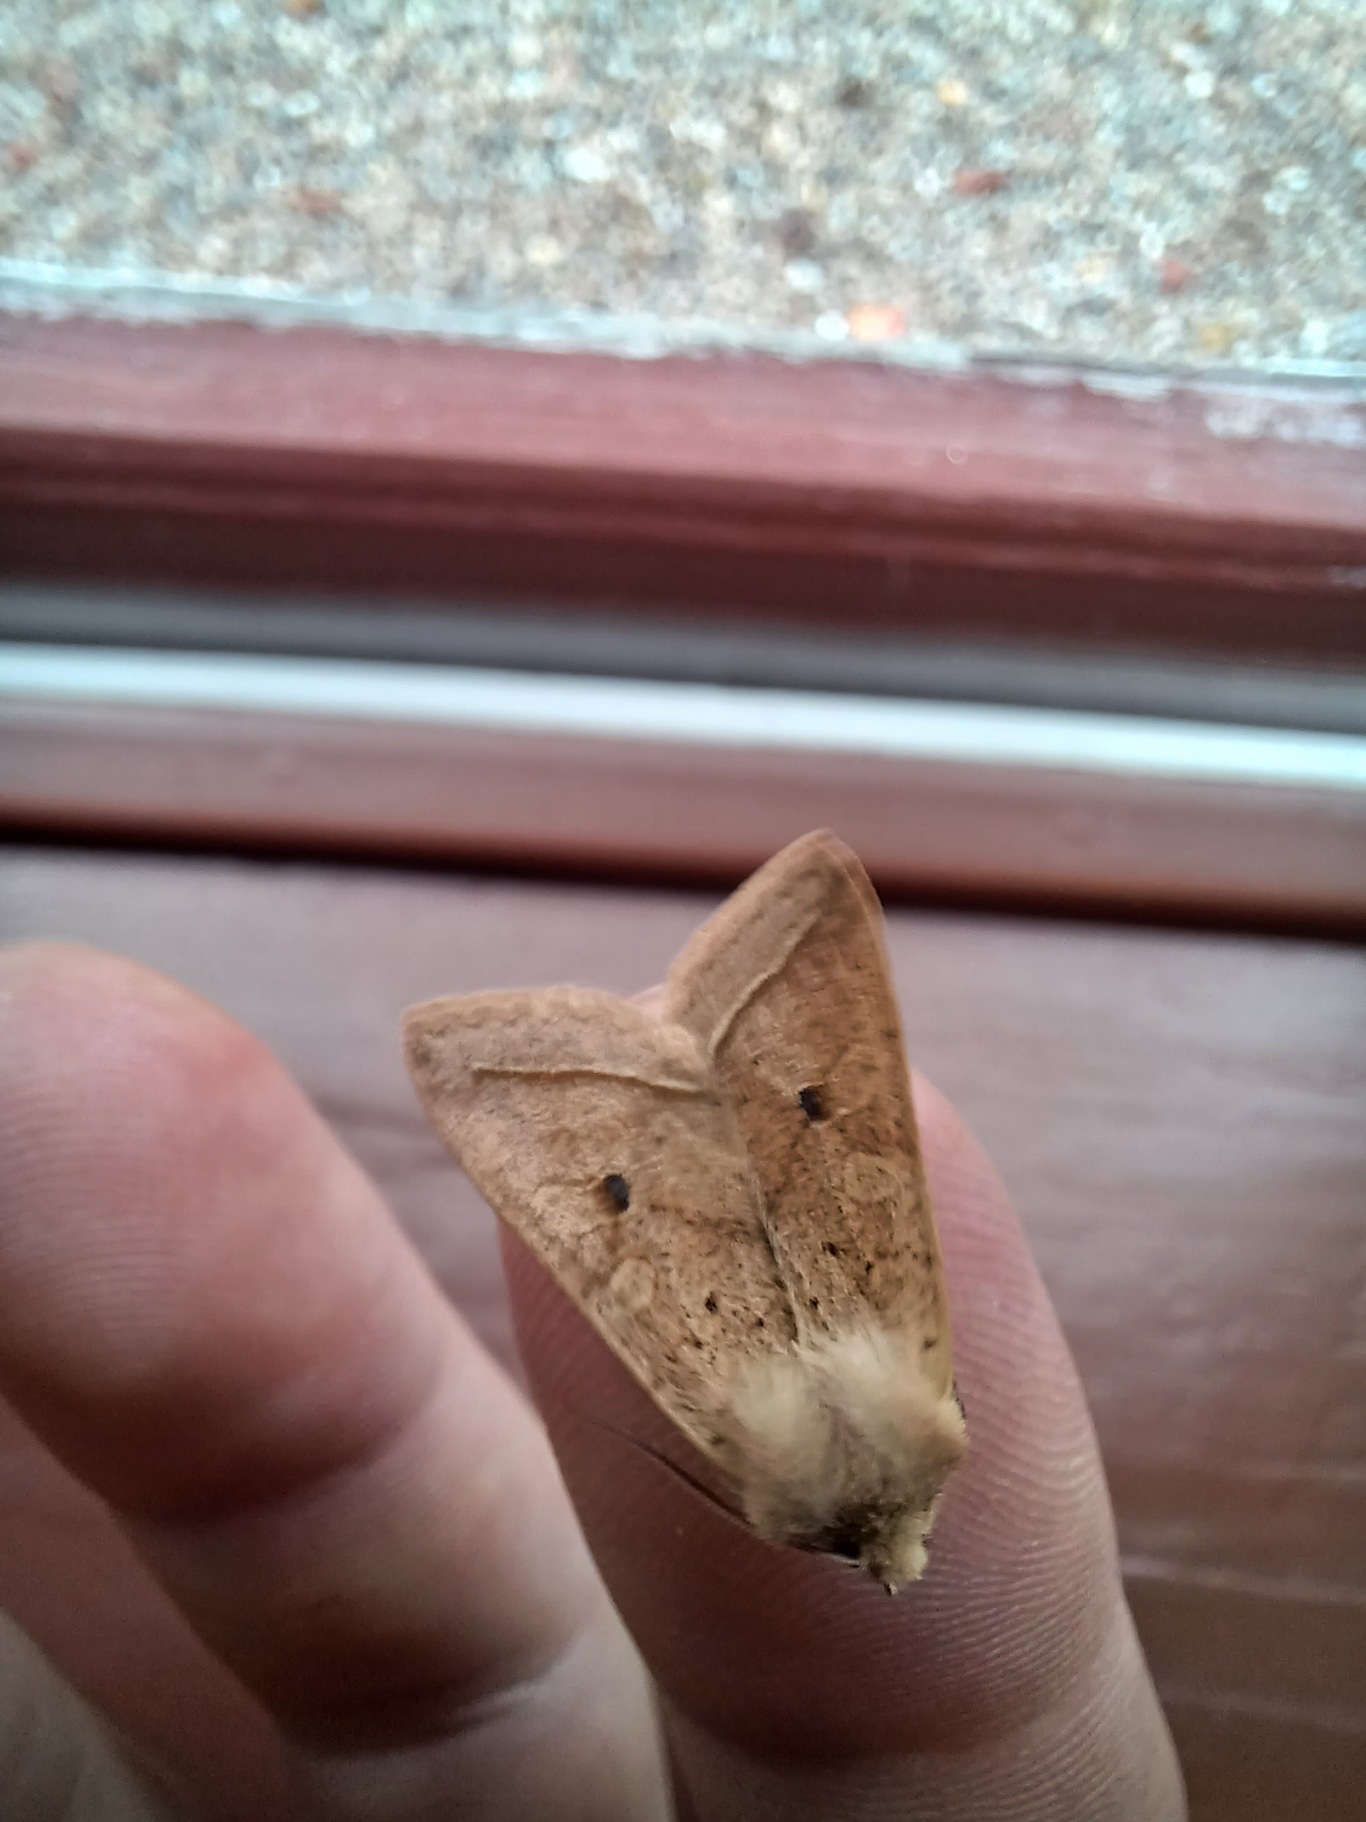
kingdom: Animalia
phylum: Arthropoda
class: Insecta
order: Lepidoptera
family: Noctuidae
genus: Agrochola
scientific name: Agrochola Leptologia macilenta
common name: Mager jordfarveugle
